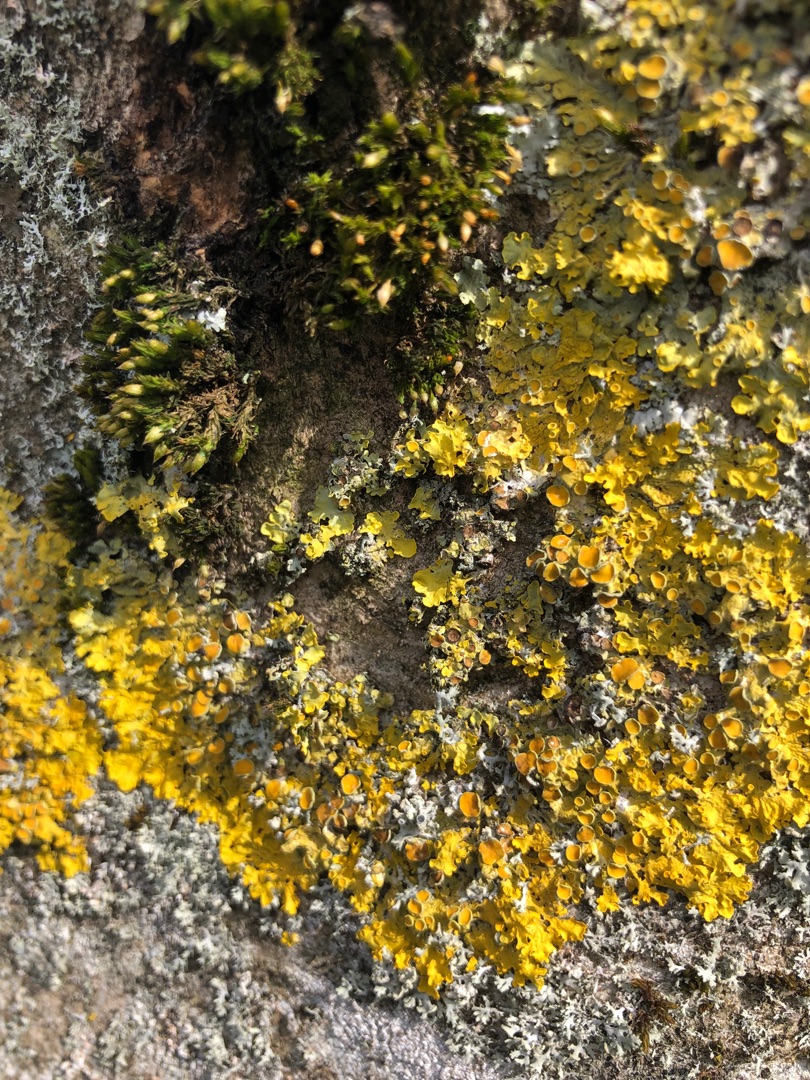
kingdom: Fungi
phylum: Ascomycota
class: Lecanoromycetes
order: Lecanorales
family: Ramalinaceae
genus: Ramalina
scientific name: Ramalina fastigiata
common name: Tue-grenlav
